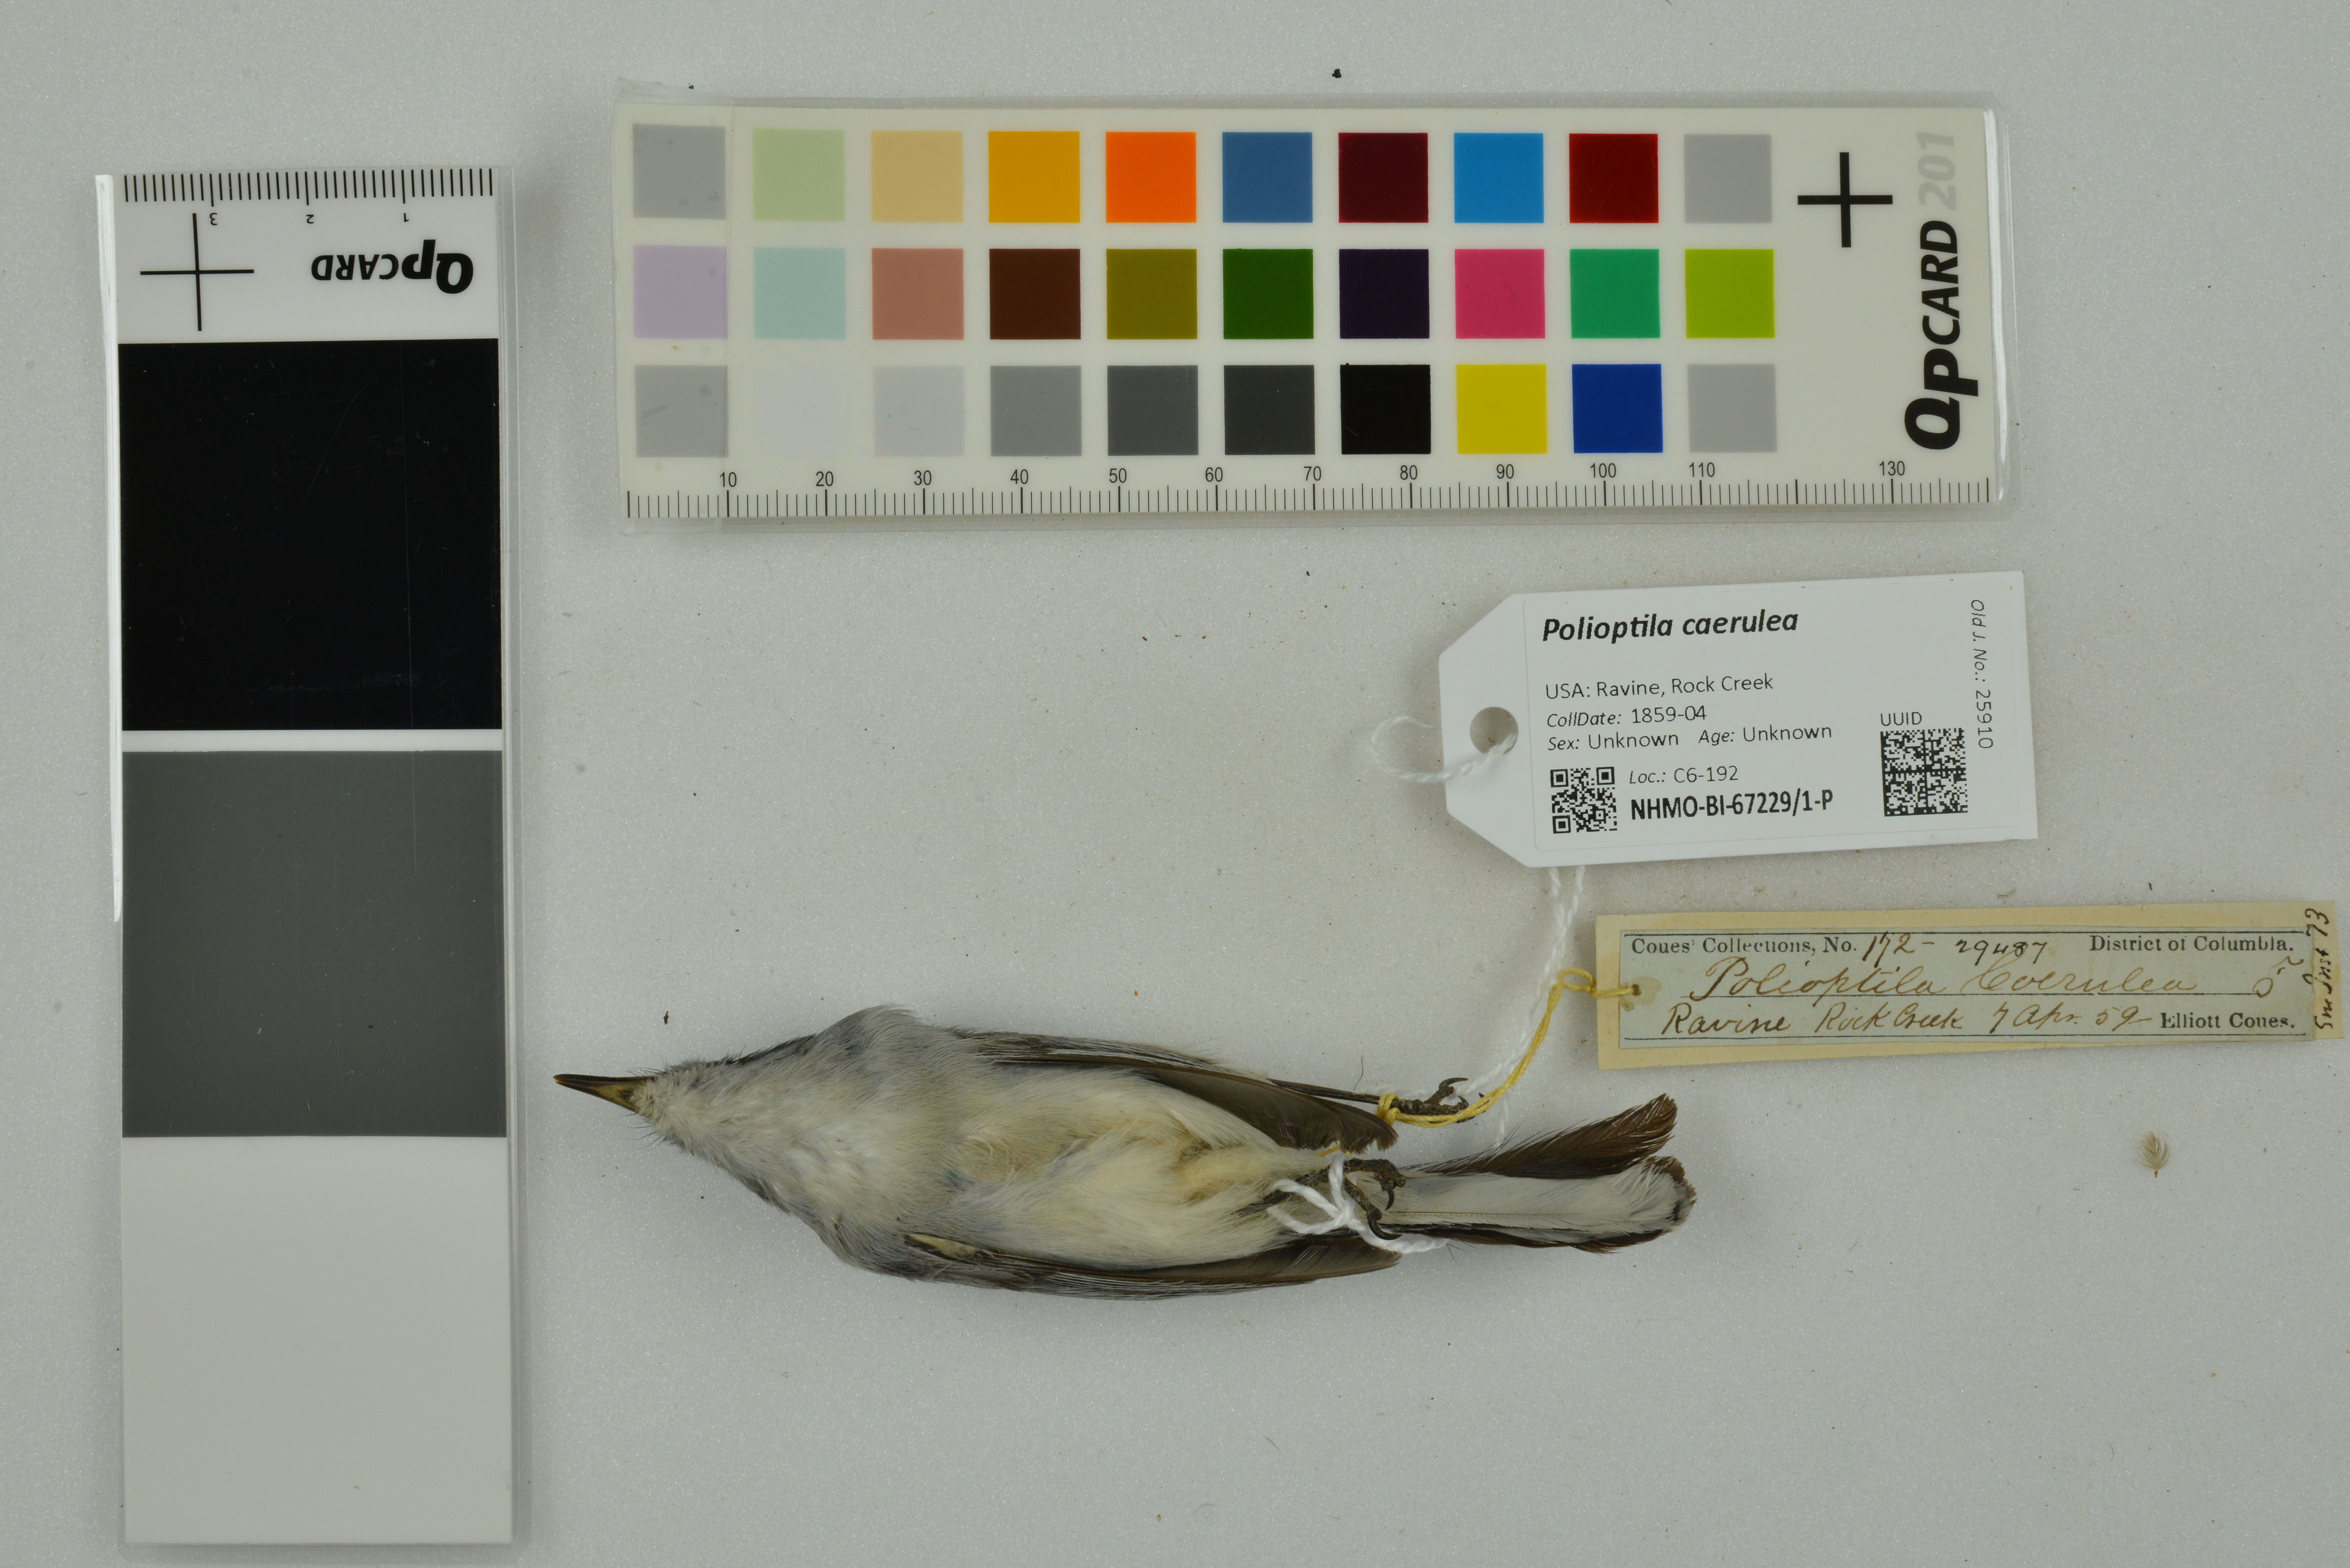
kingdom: Animalia
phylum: Chordata
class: Aves
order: Passeriformes
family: Polioptilidae
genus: Polioptila
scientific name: Polioptila caerulea
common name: Blue-gray gnatcatcher
